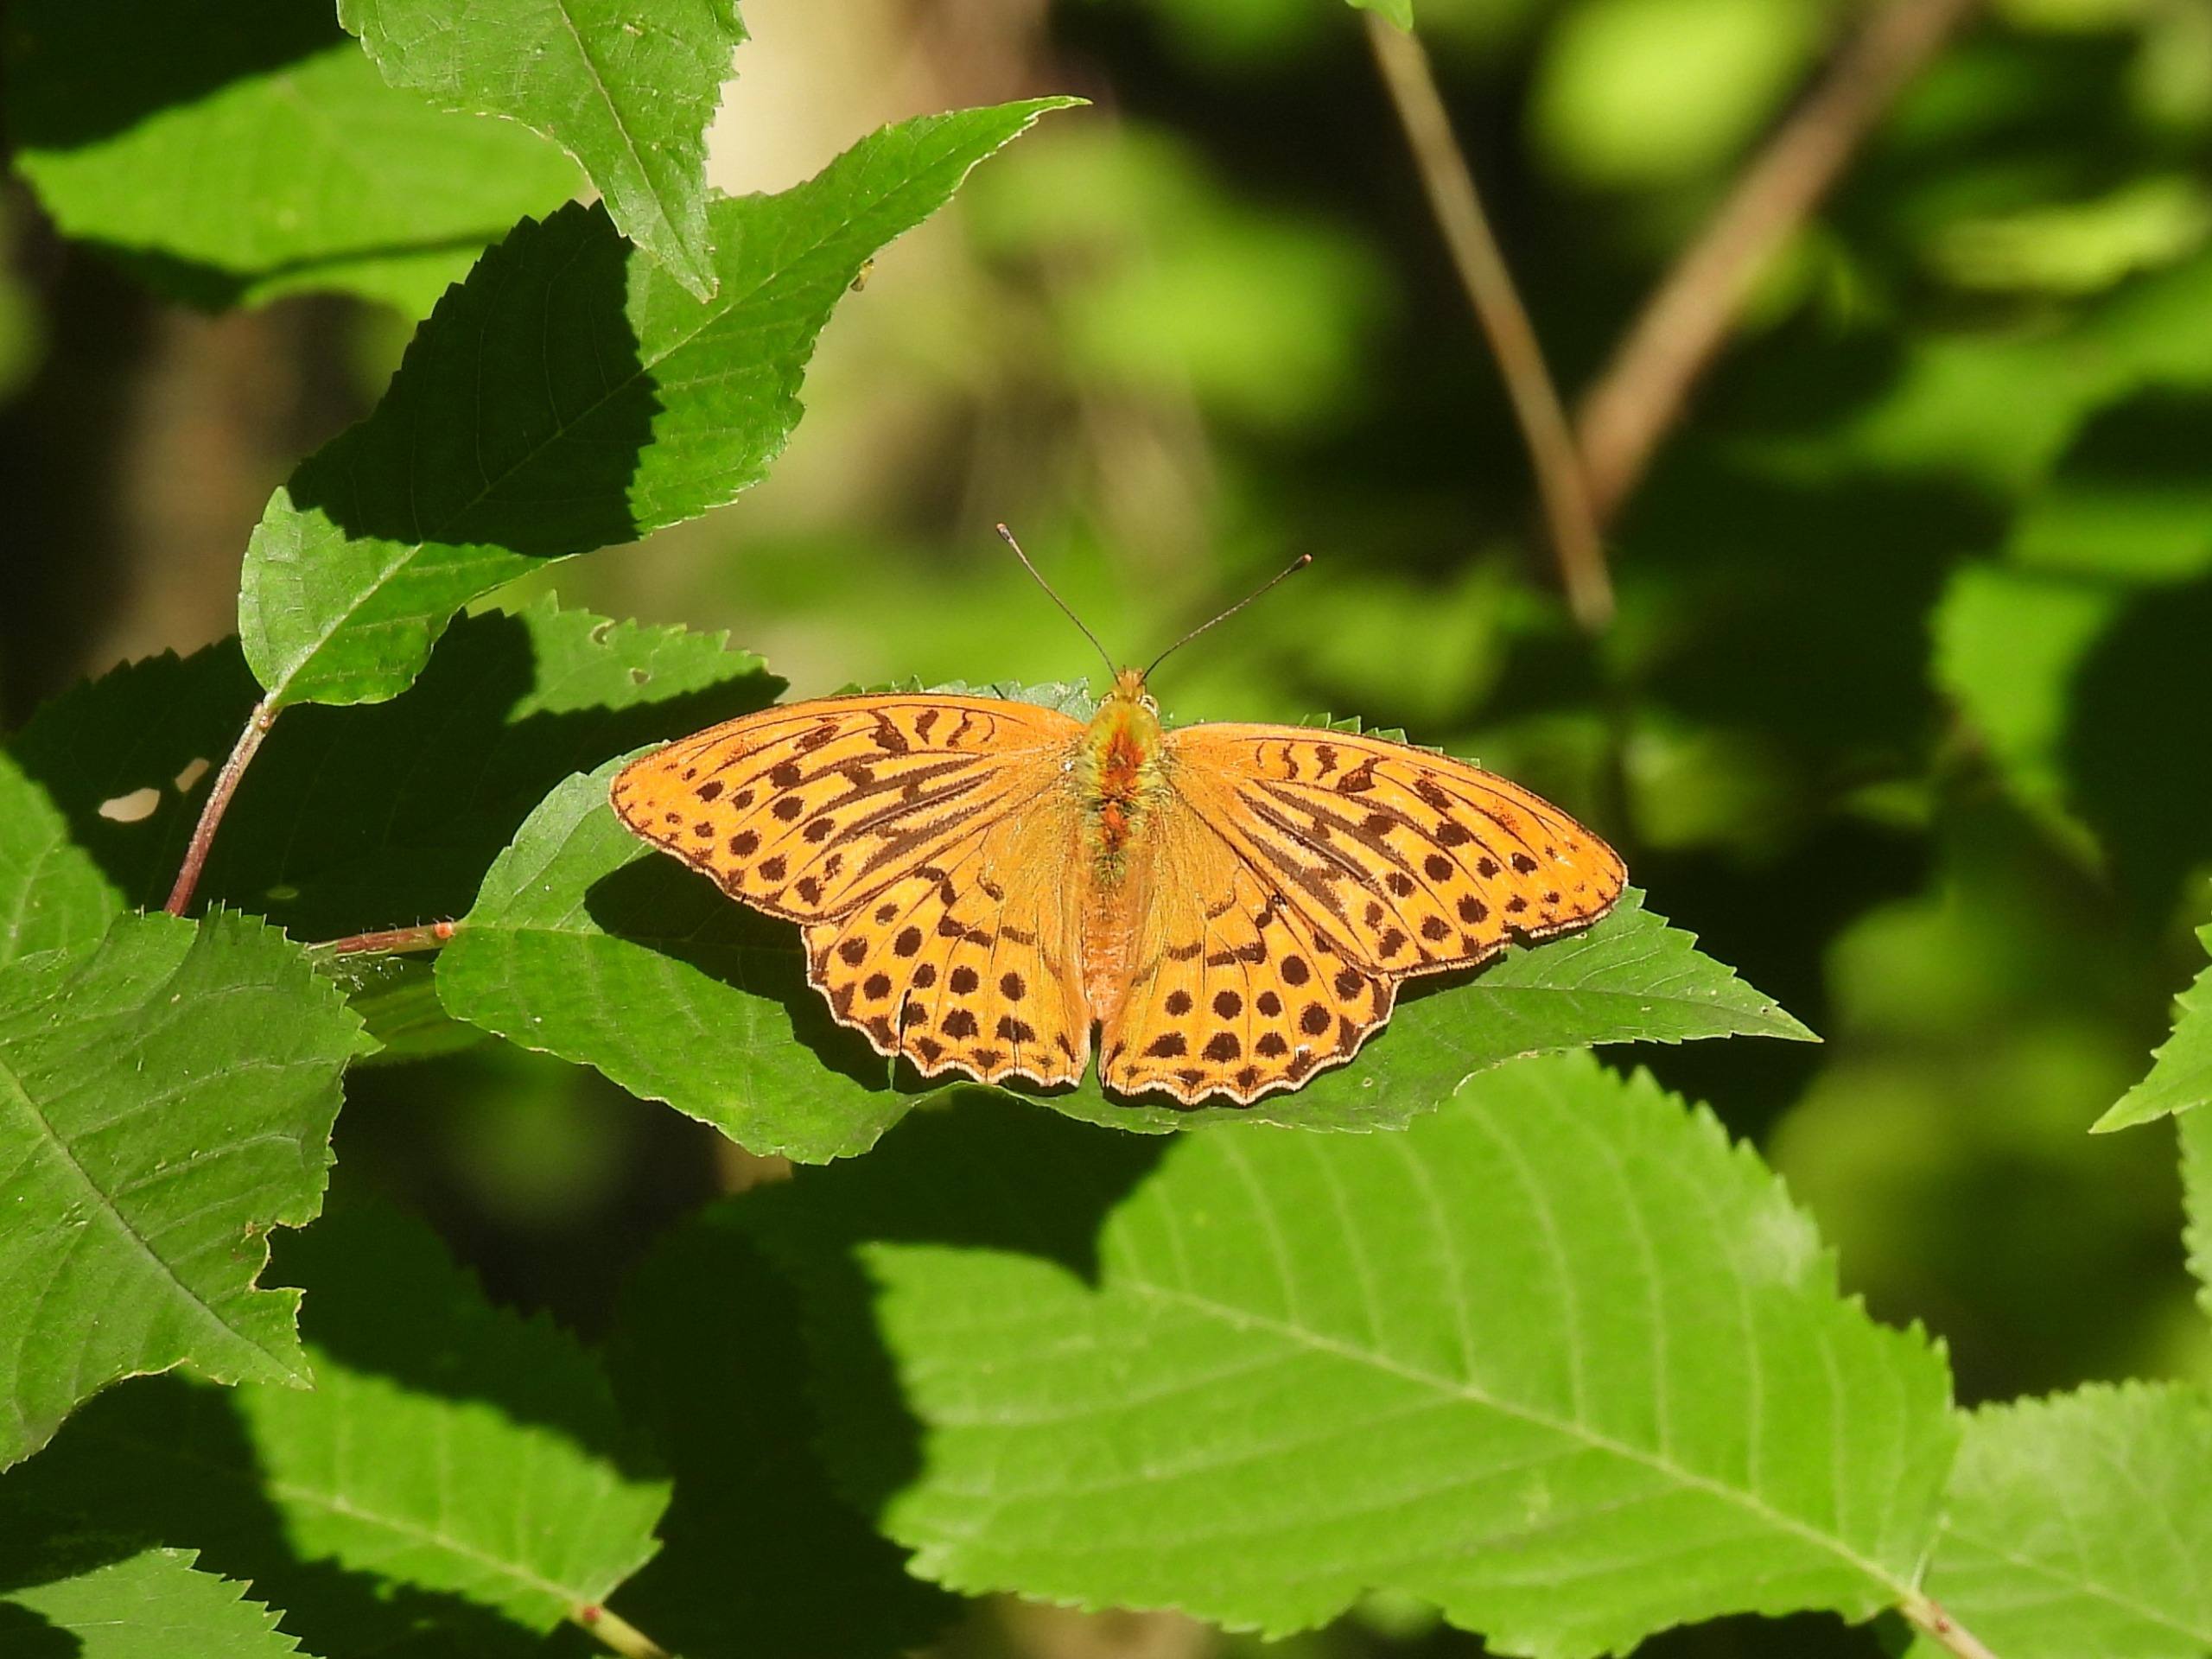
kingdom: Animalia
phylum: Arthropoda
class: Insecta
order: Lepidoptera
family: Nymphalidae
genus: Argynnis
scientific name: Argynnis paphia
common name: Kejserkåbe
